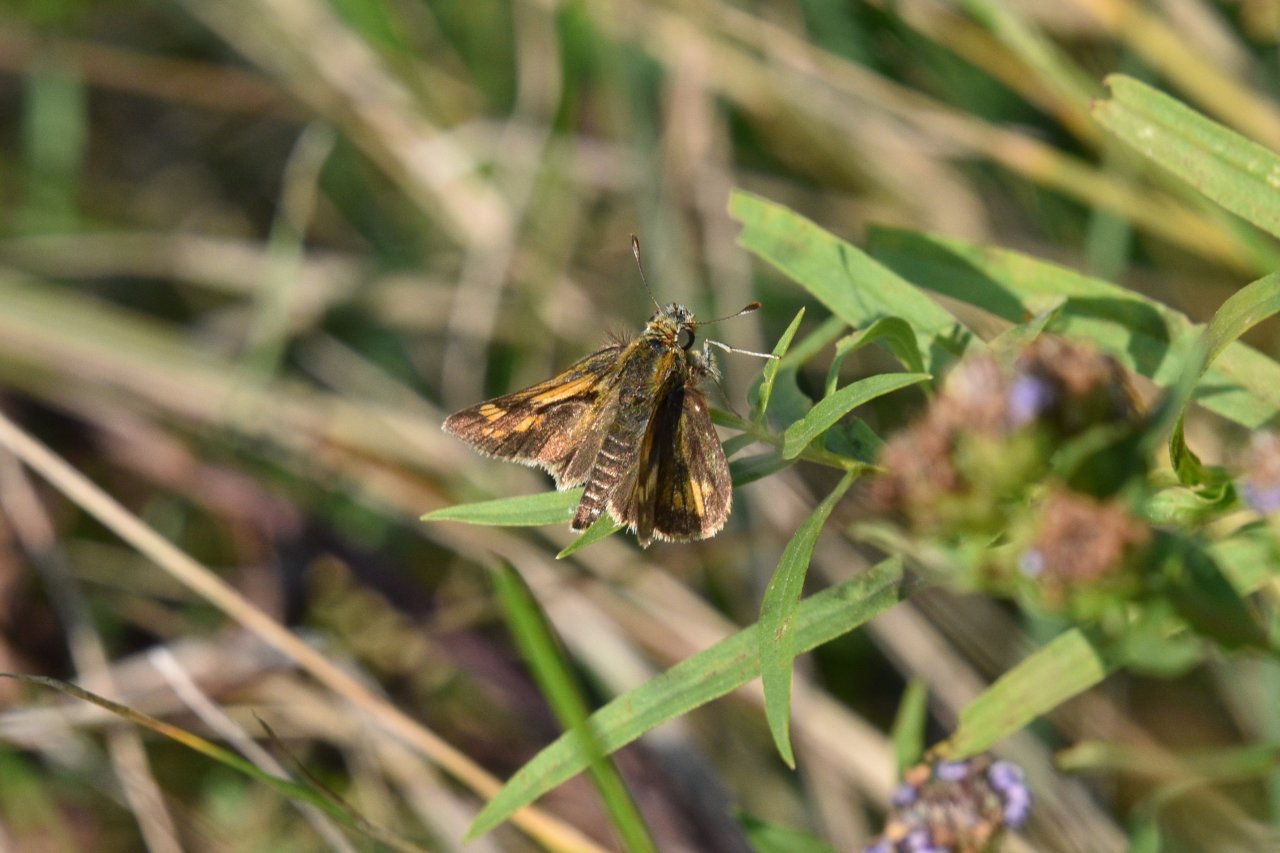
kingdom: Animalia
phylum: Arthropoda
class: Insecta
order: Lepidoptera
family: Hesperiidae
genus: Polites
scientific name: Polites coras
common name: Peck's Skipper
